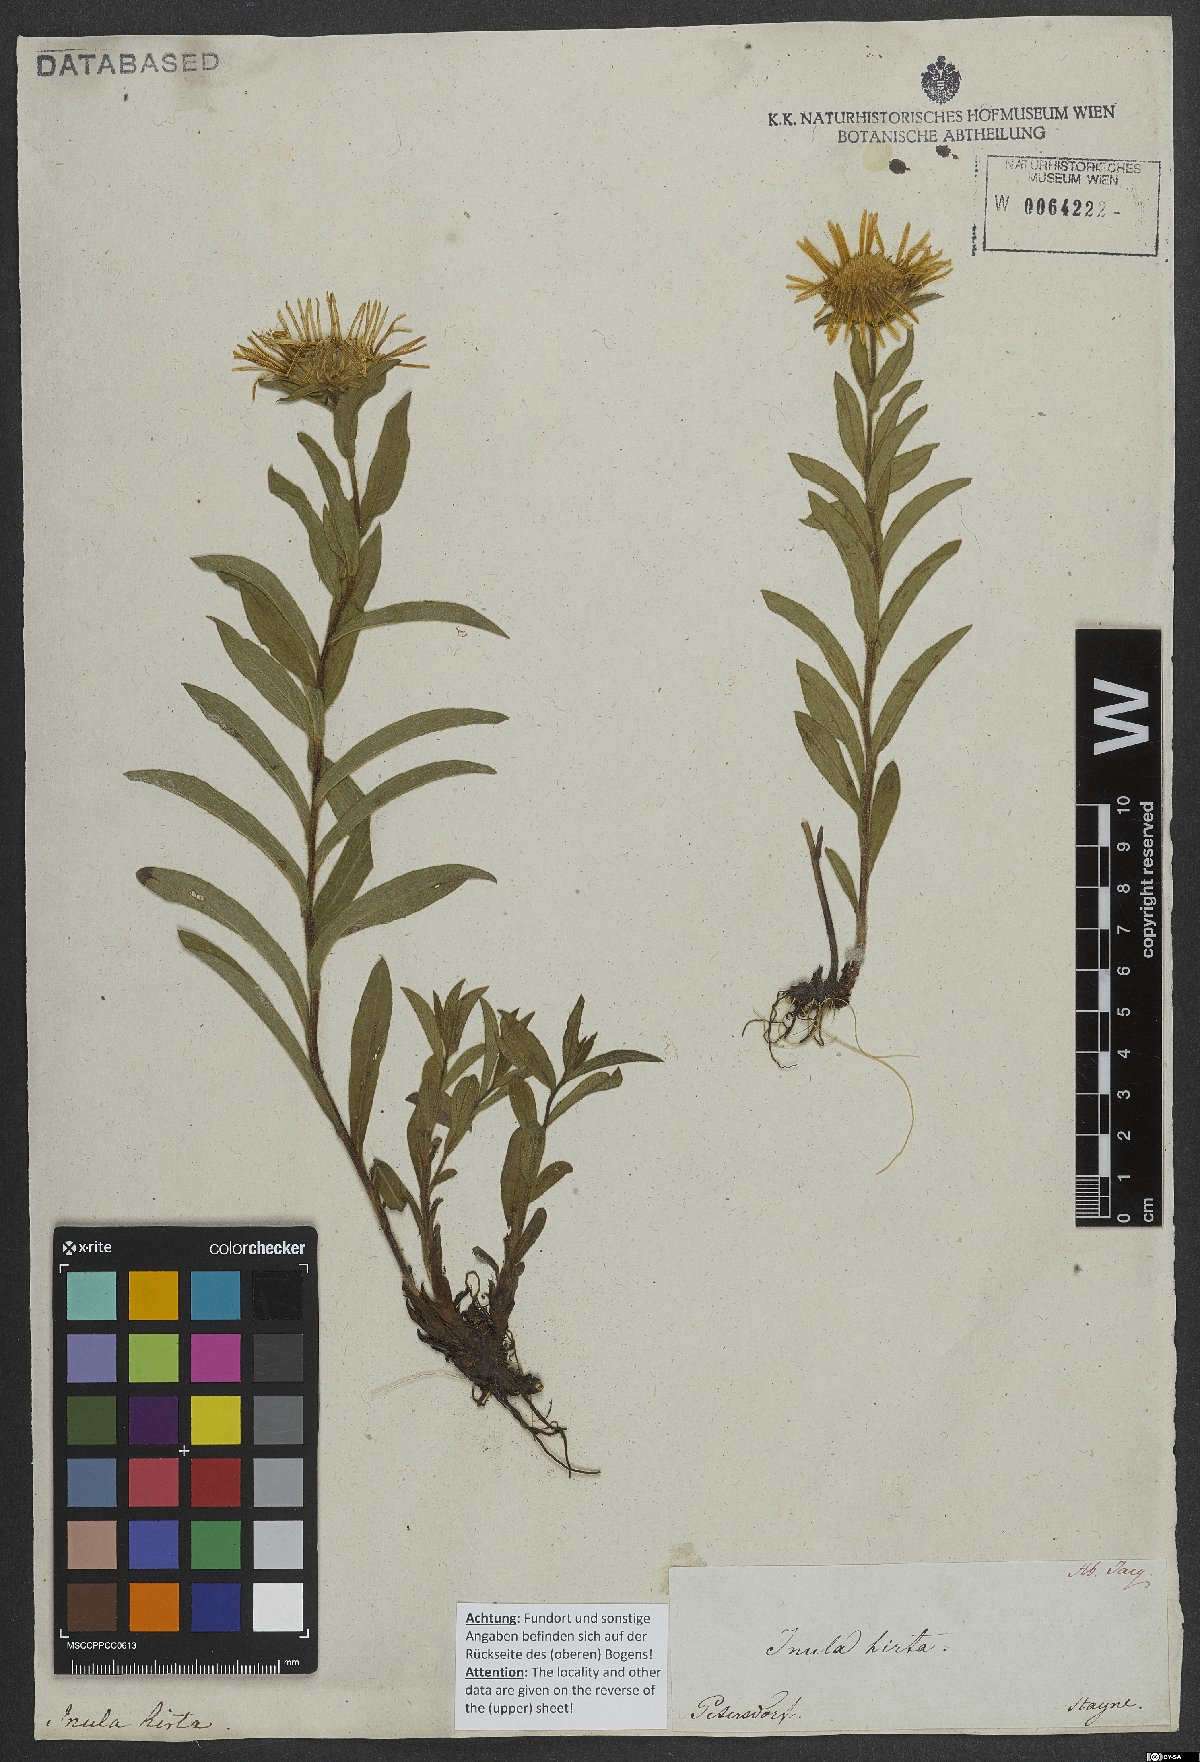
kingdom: Plantae
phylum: Tracheophyta
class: Magnoliopsida
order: Asterales
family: Asteraceae
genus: Pentanema
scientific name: Pentanema hirtum
